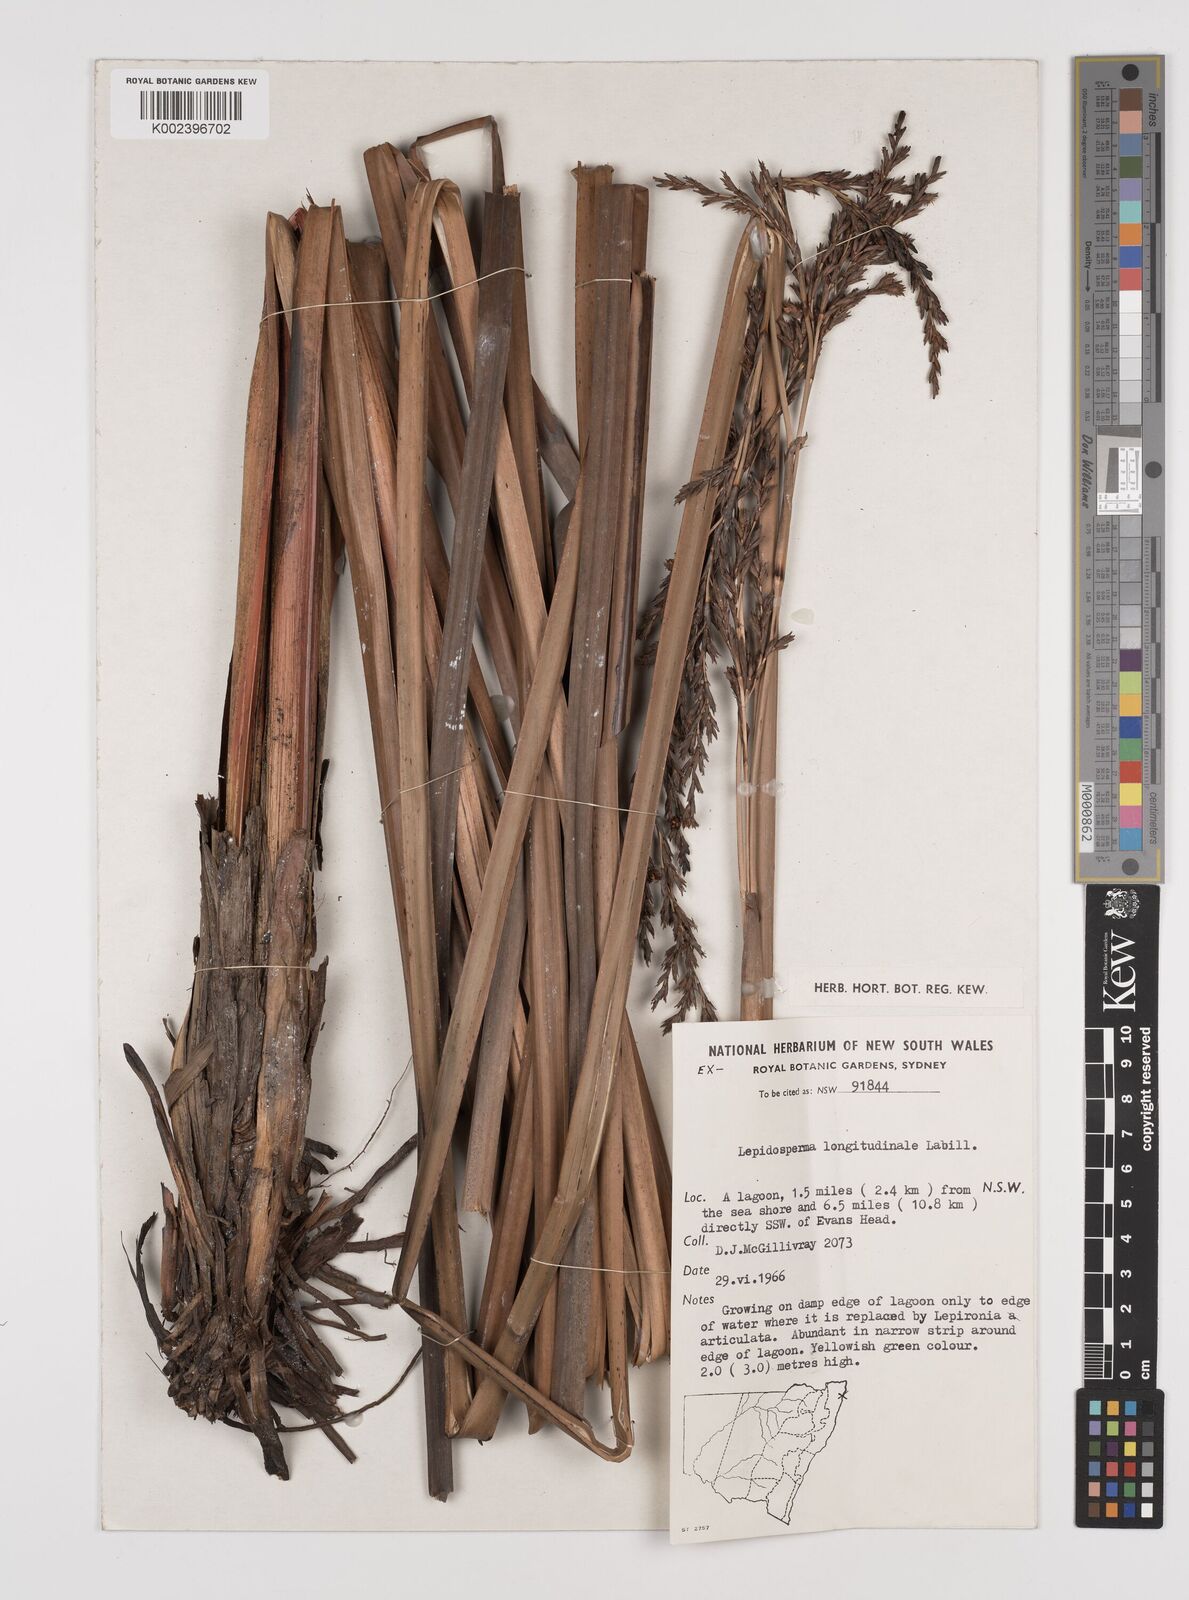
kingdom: Plantae
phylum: Tracheophyta
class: Liliopsida
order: Poales
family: Cyperaceae
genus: Lepidosperma
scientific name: Lepidosperma longitudinale
